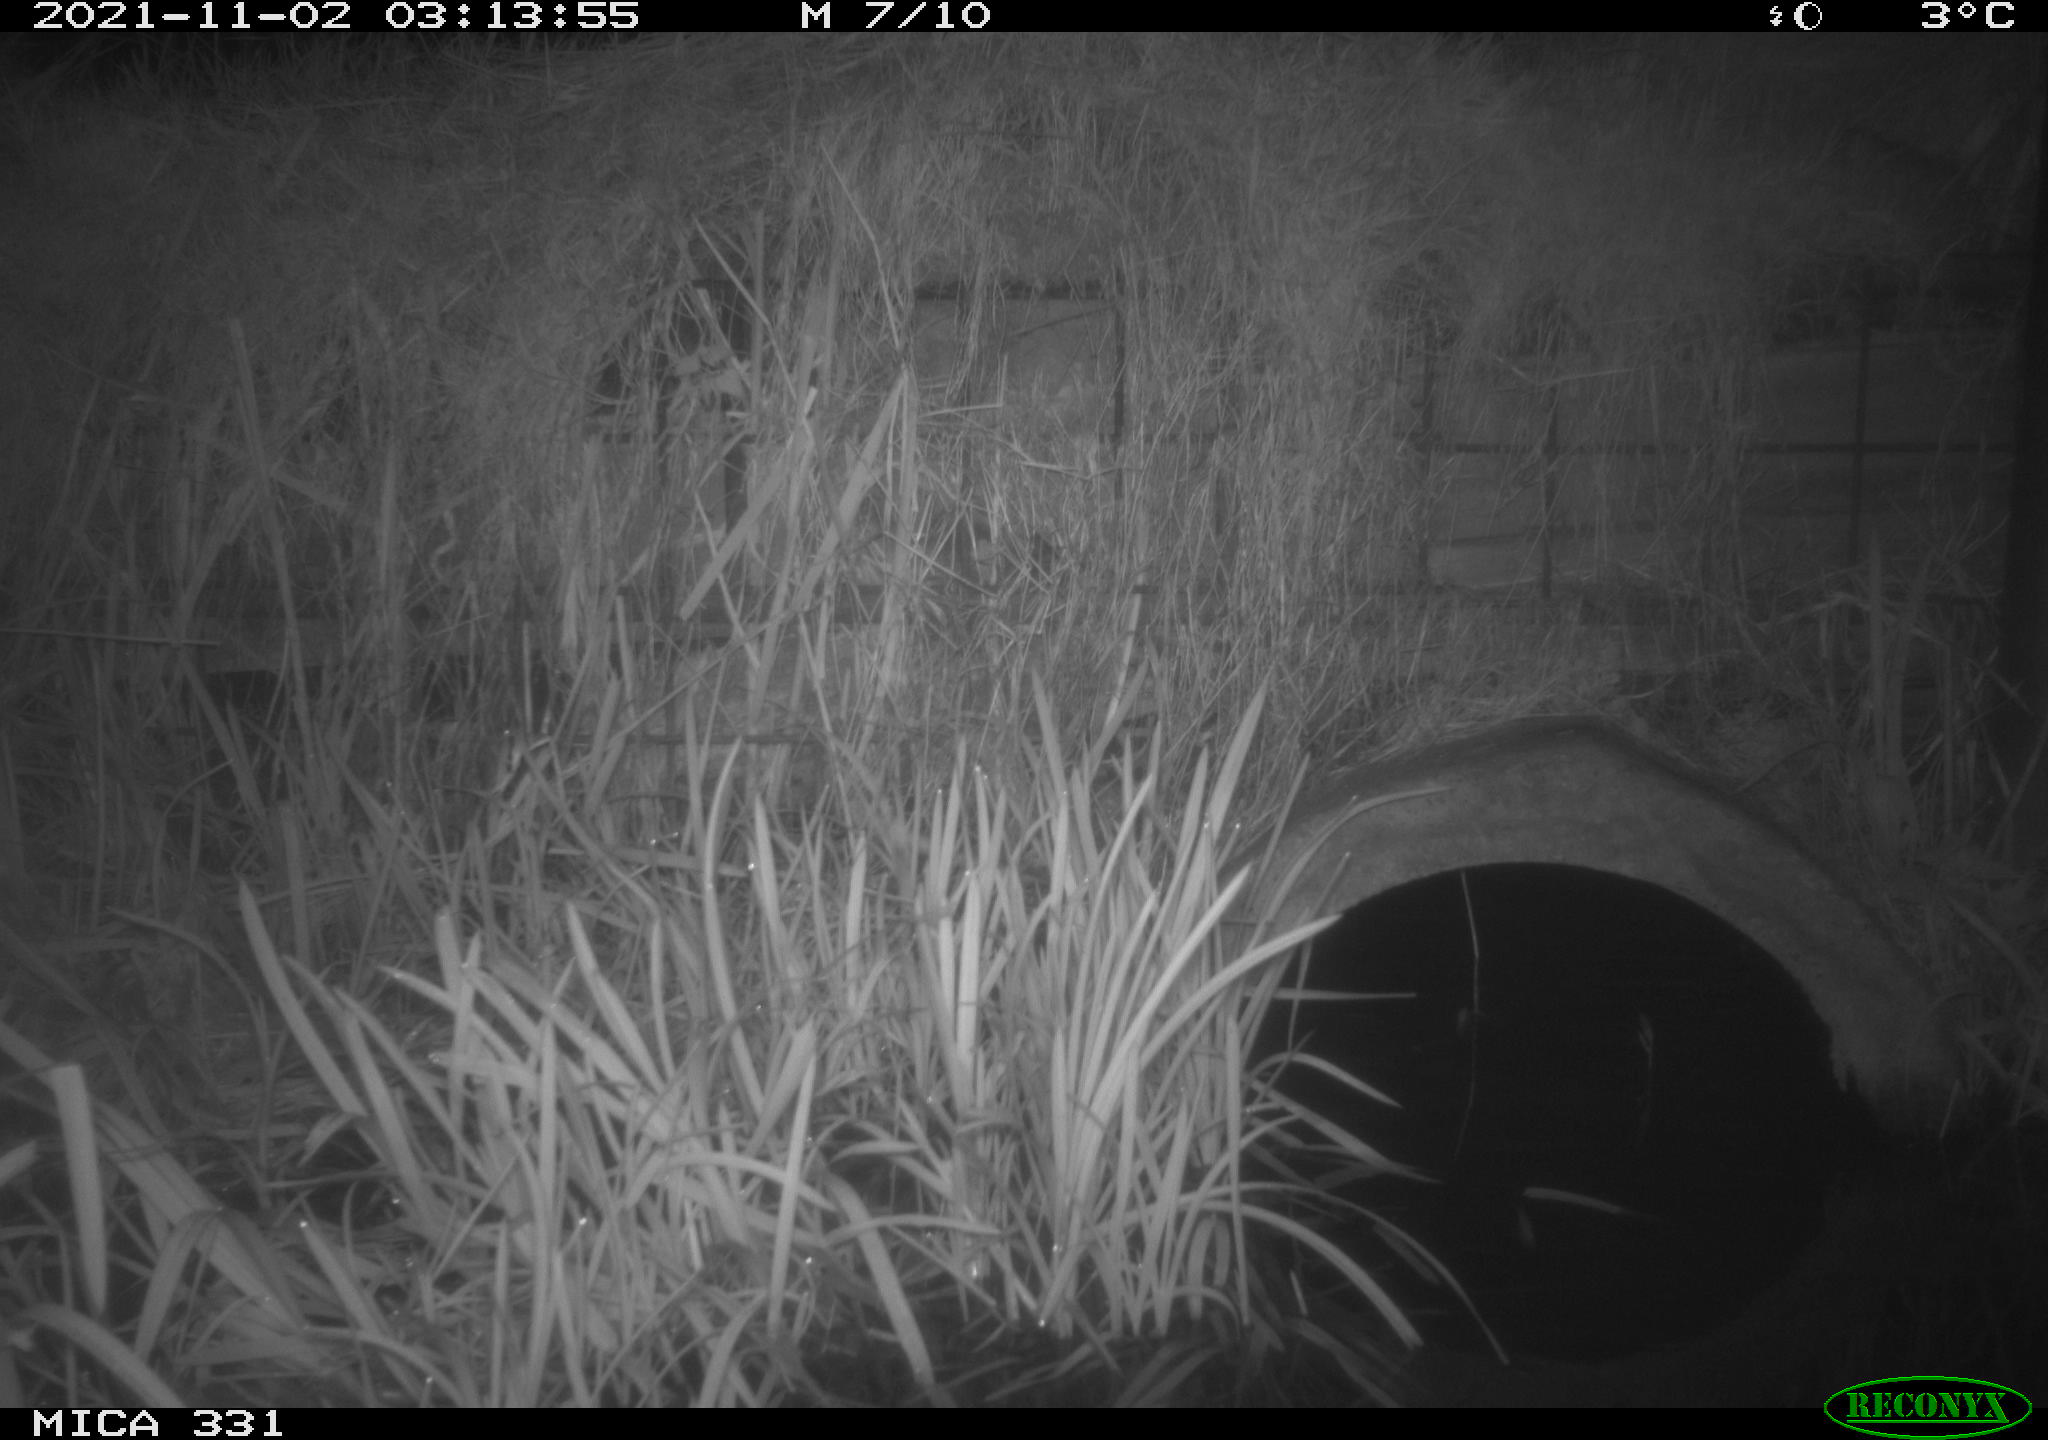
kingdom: Animalia
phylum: Chordata
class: Mammalia
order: Rodentia
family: Muridae
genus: Rattus
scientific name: Rattus norvegicus
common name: Brown rat
